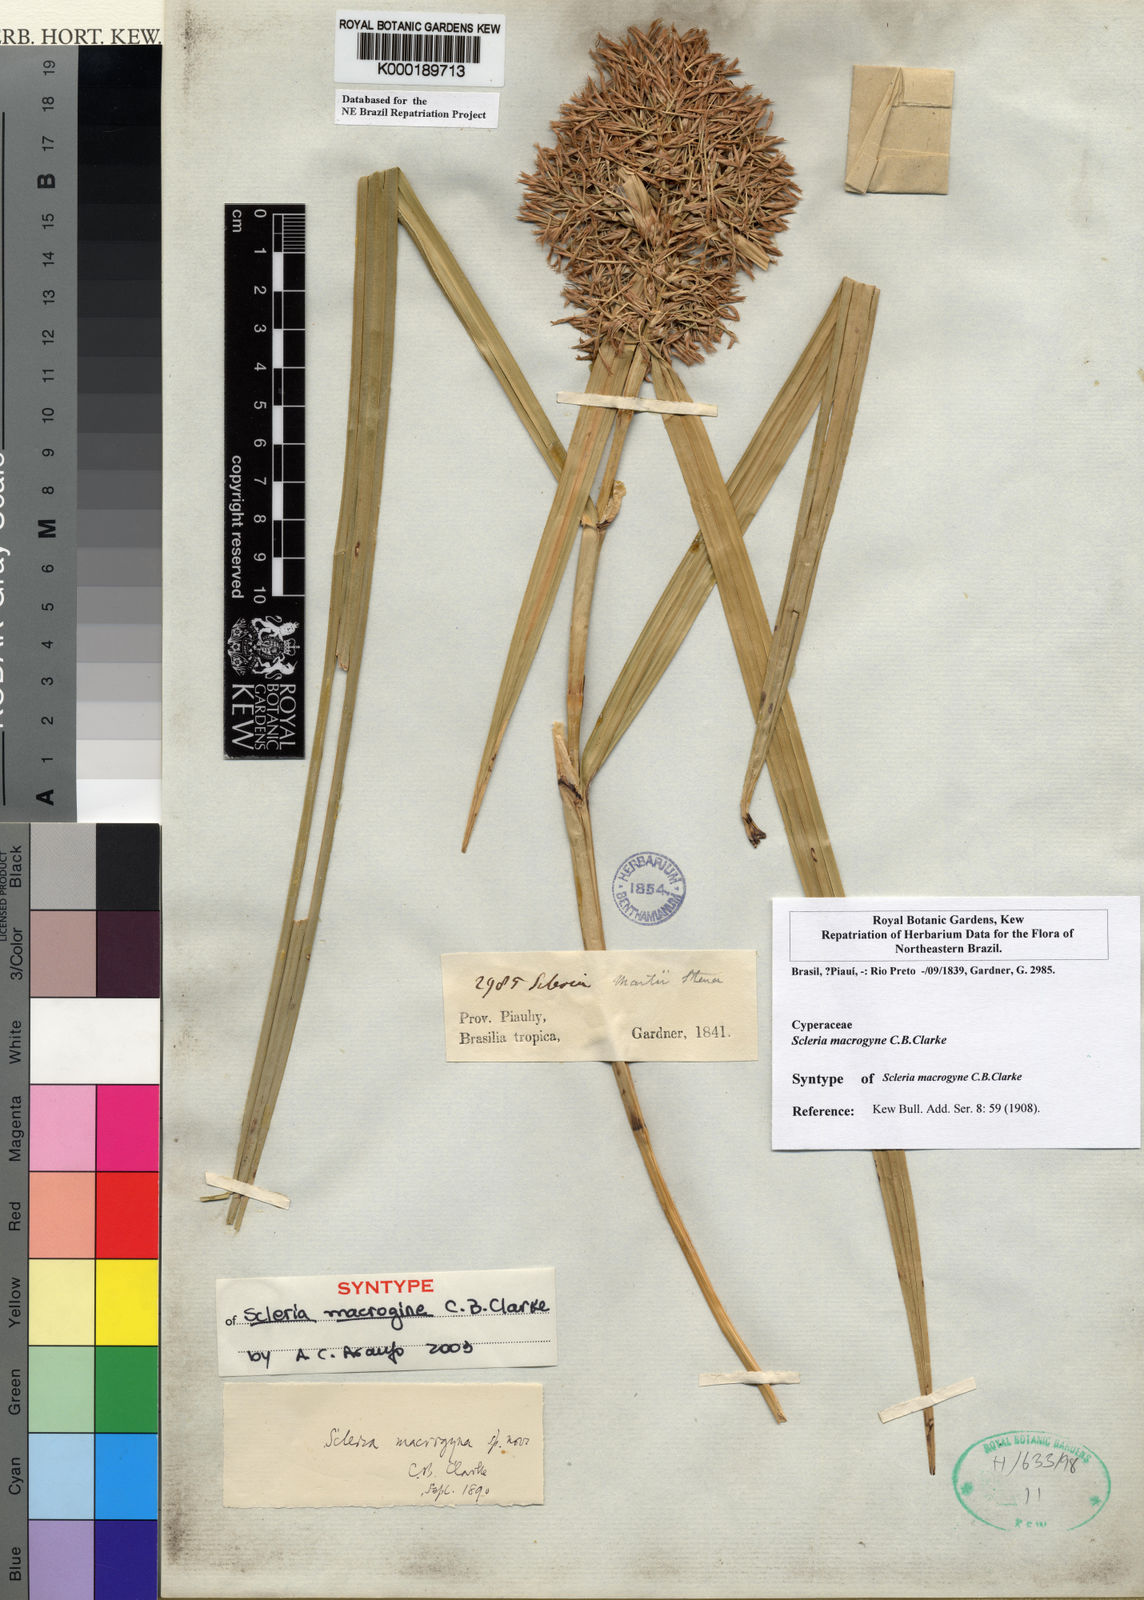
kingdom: Plantae
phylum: Tracheophyta
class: Liliopsida
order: Poales
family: Cyperaceae
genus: Scleria
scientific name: Scleria macrogyne
